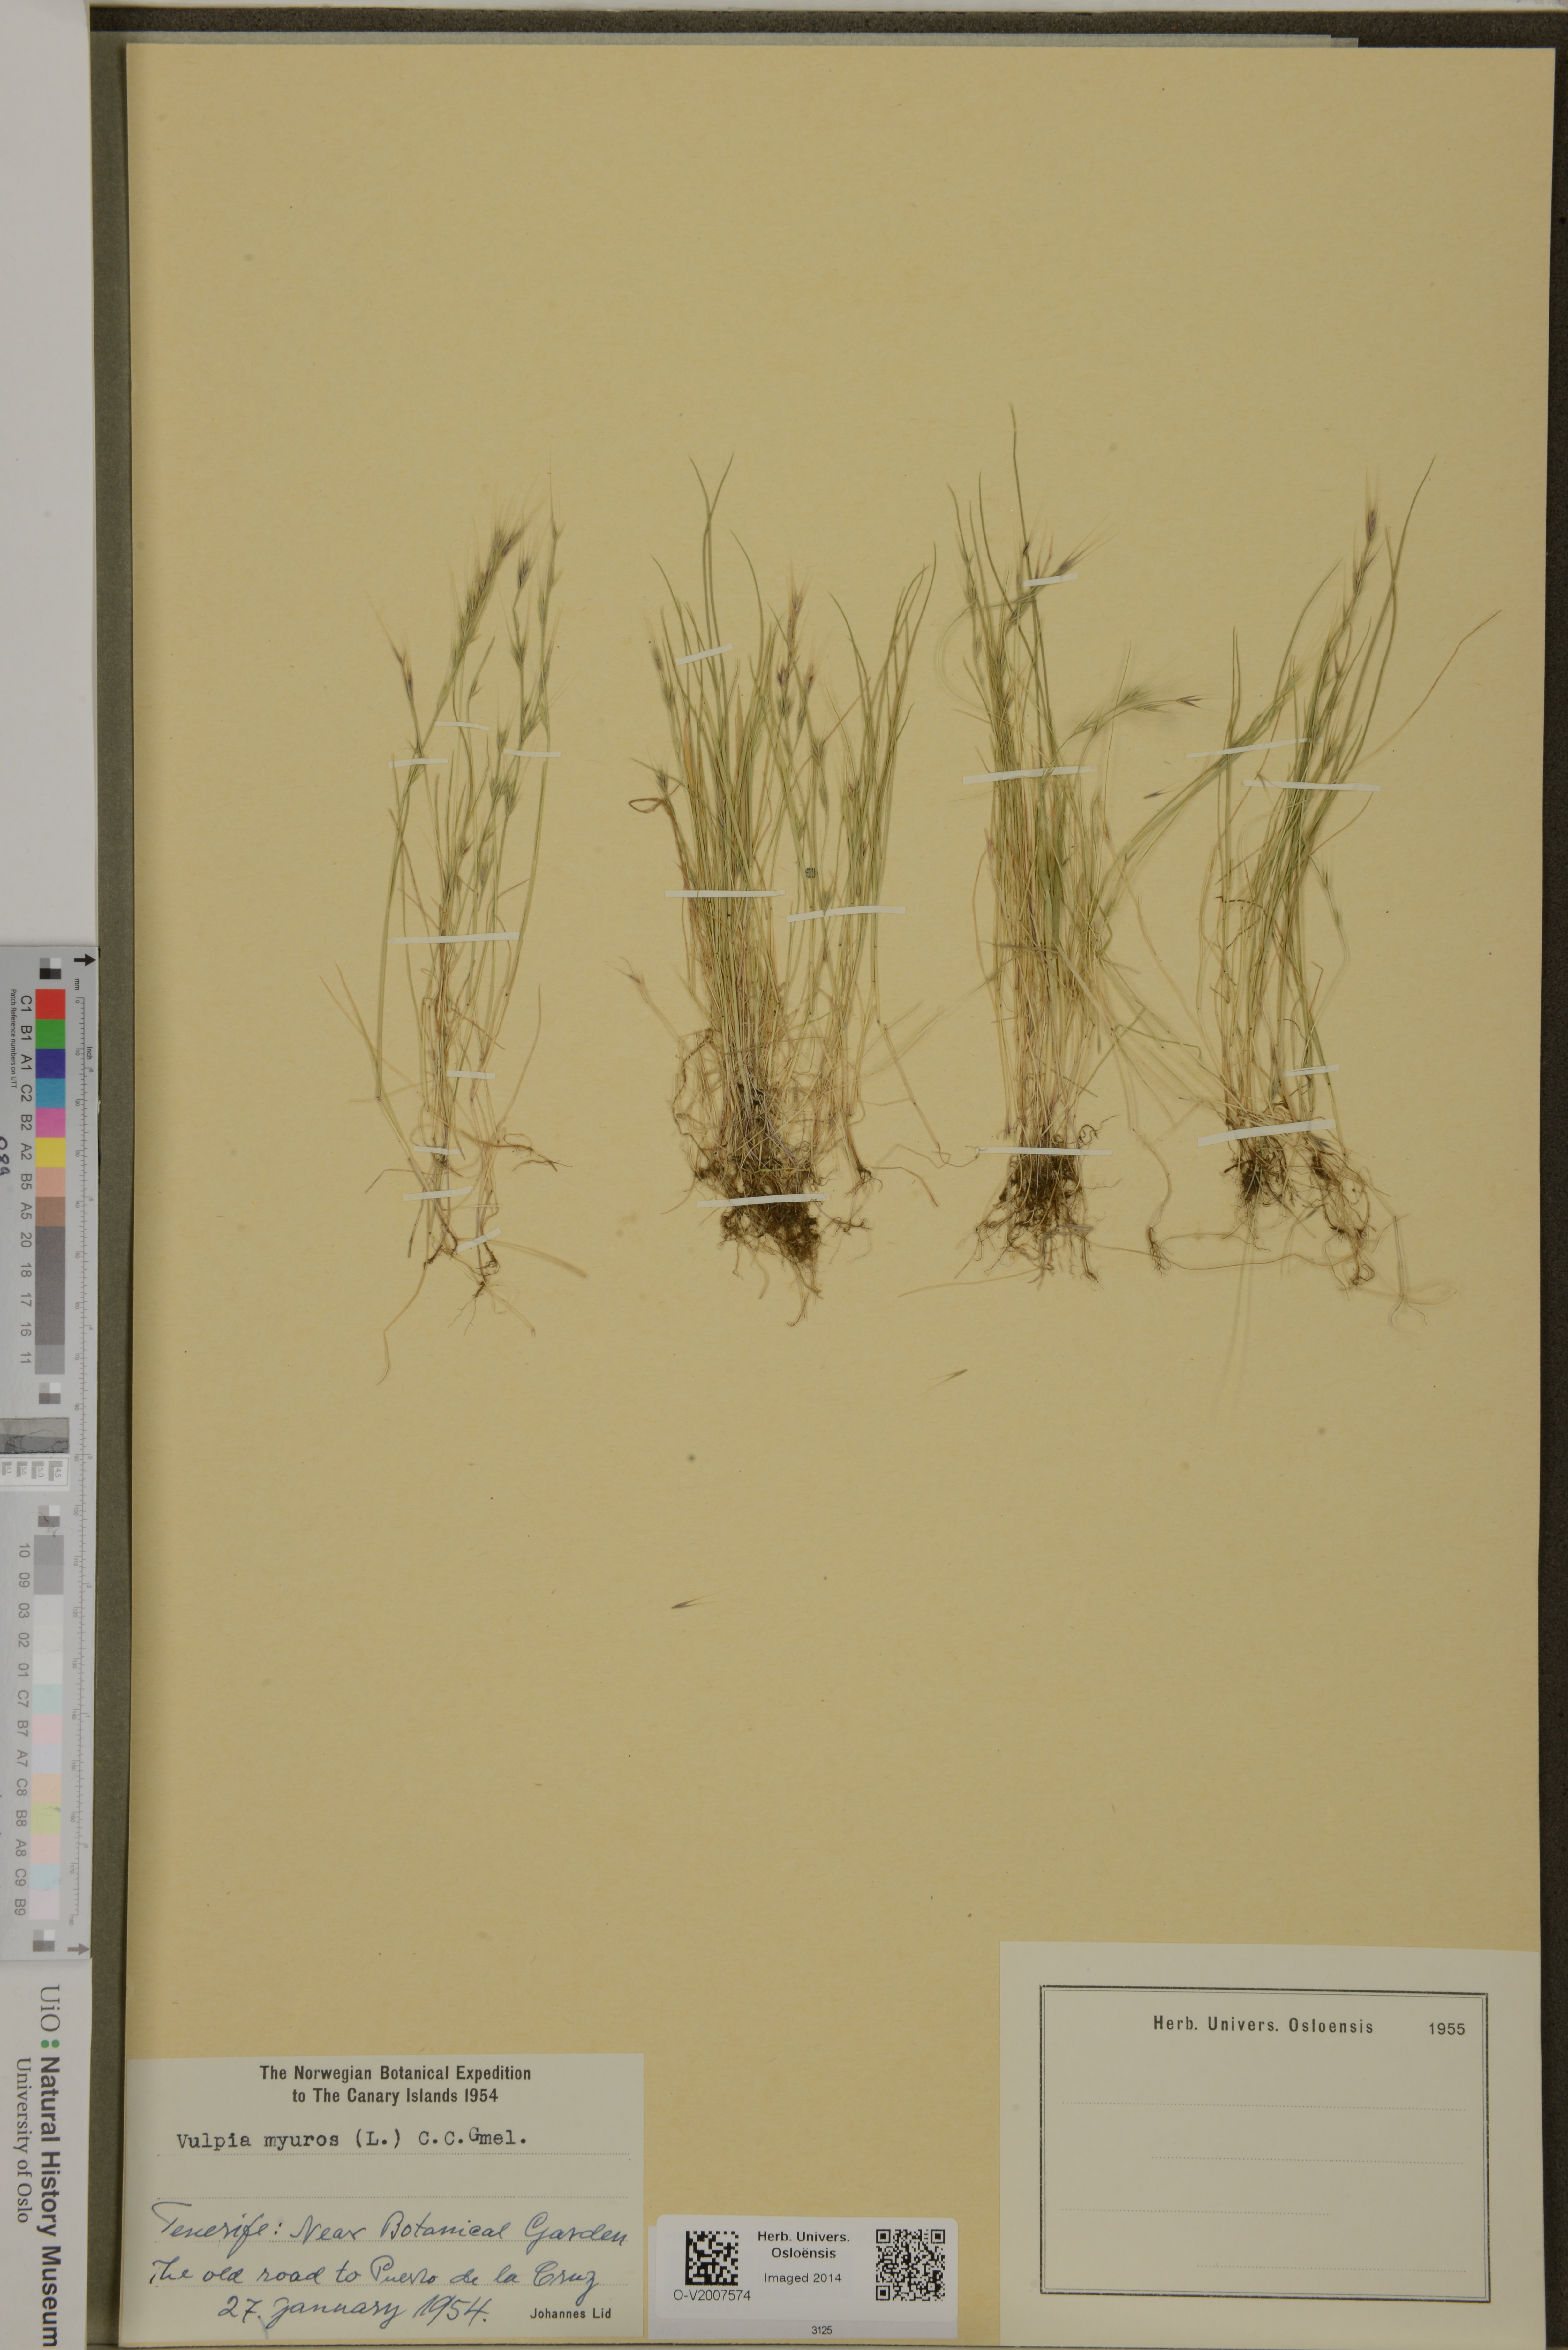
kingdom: Plantae
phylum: Tracheophyta
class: Liliopsida
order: Poales
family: Poaceae
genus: Festuca
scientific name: Festuca myuros
